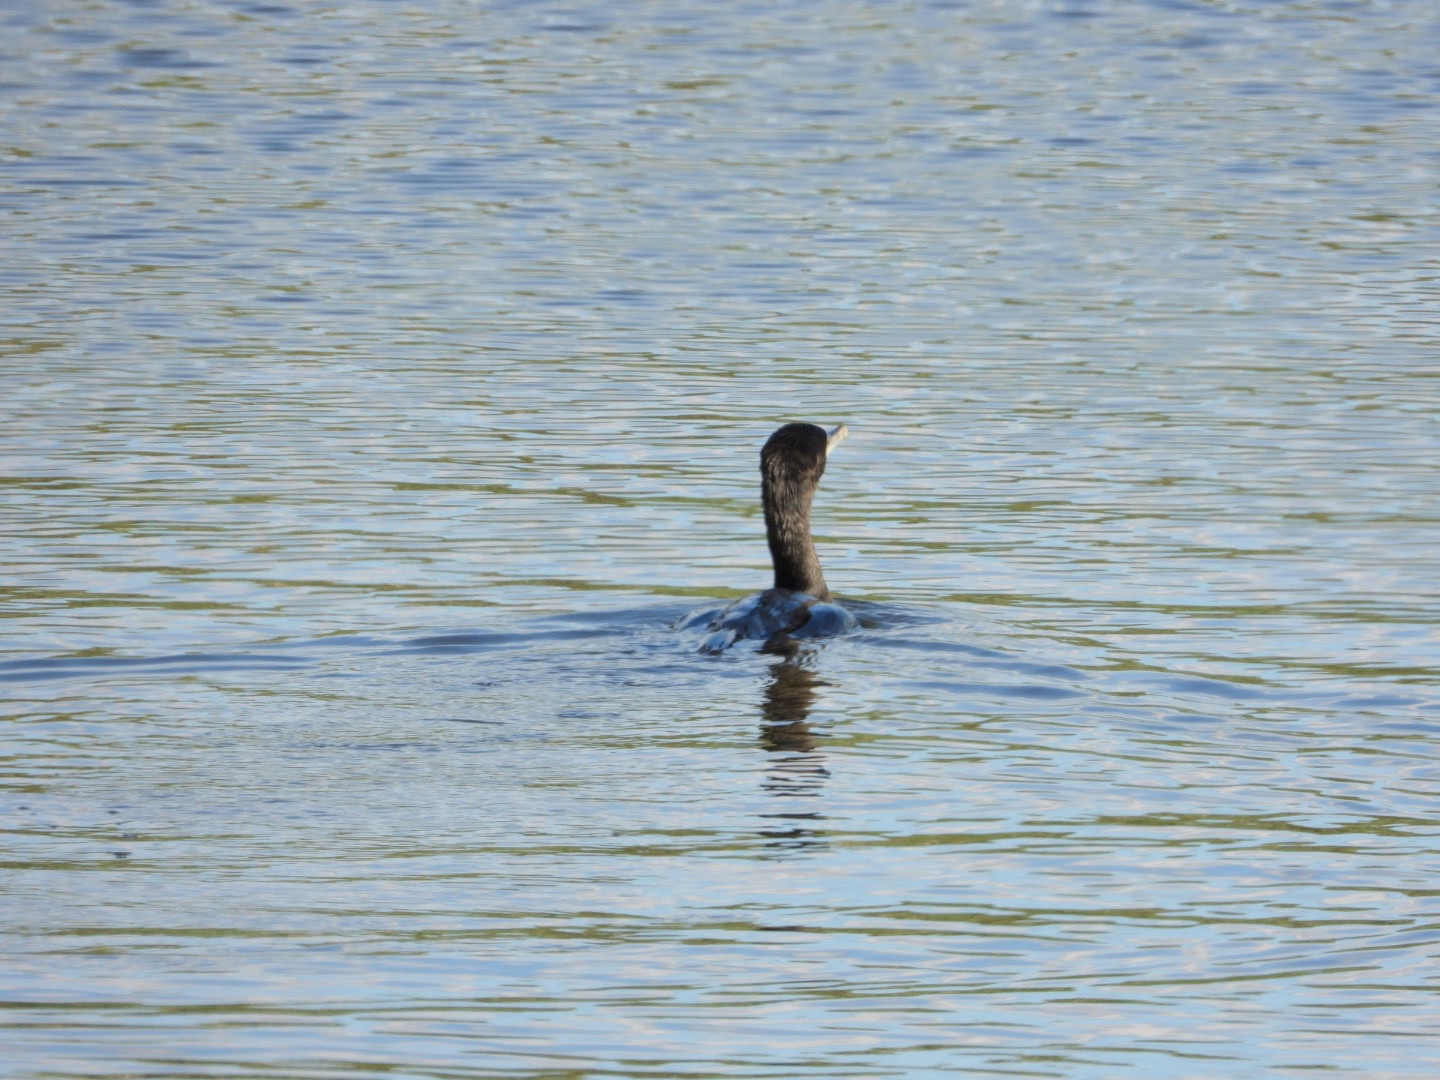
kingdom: Animalia
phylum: Chordata
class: Aves
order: Suliformes
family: Phalacrocoracidae
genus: Phalacrocorax
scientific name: Phalacrocorax carbo
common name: Skarv
